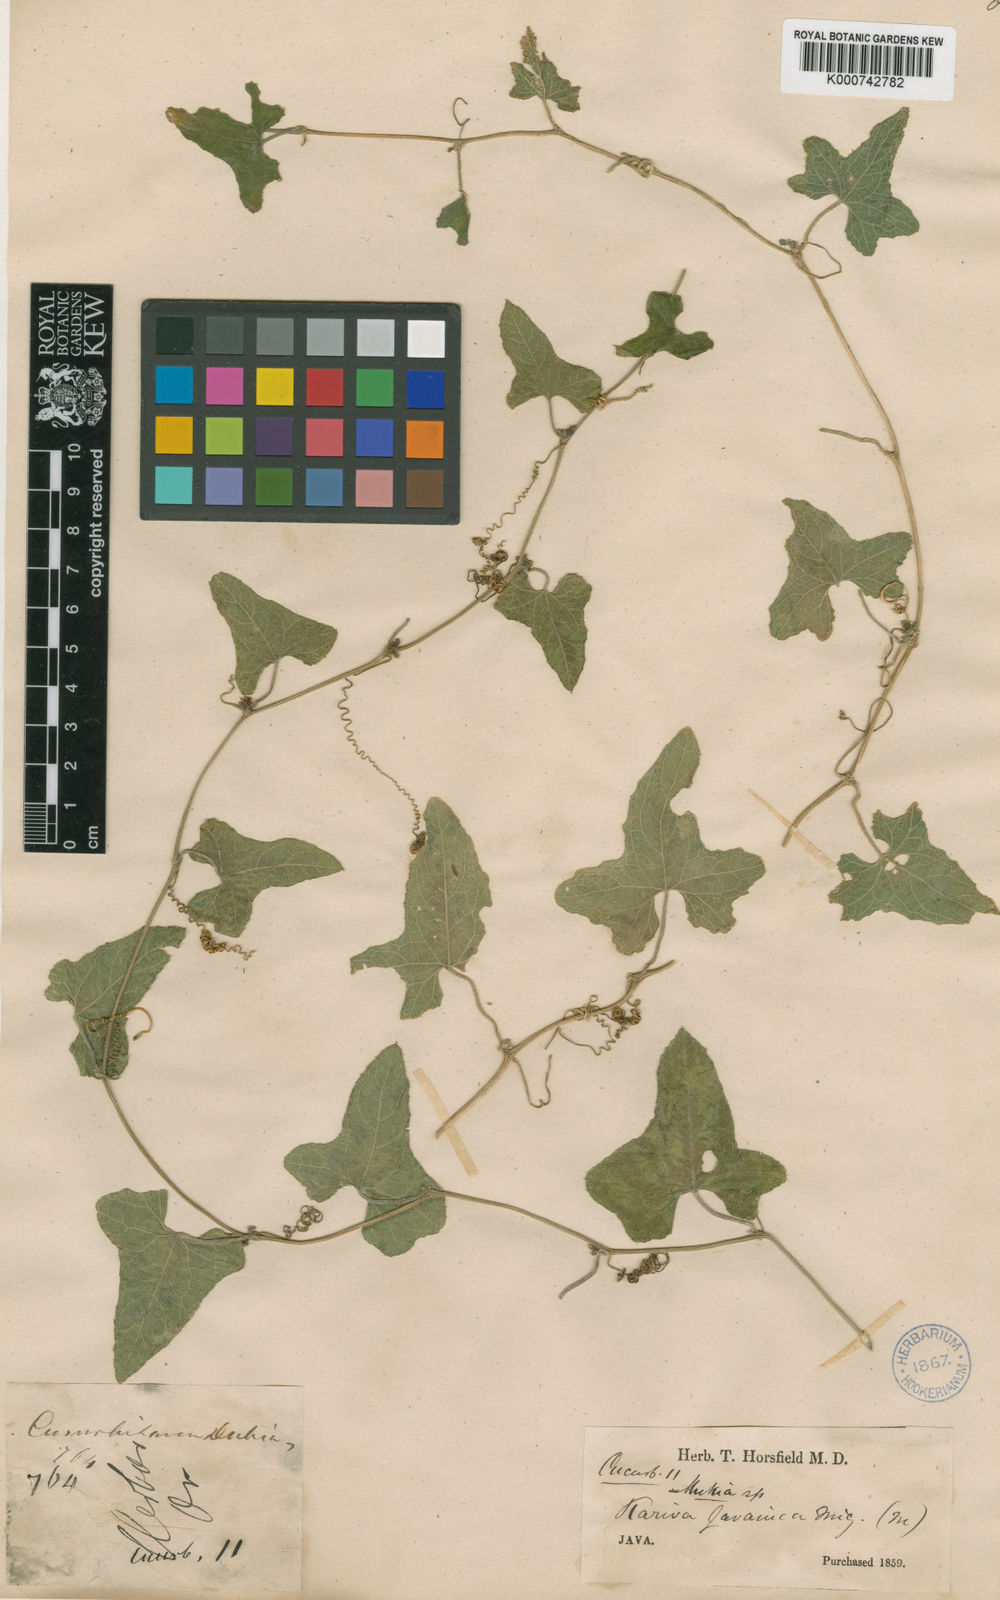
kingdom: Plantae
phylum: Tracheophyta
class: Magnoliopsida
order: Cucurbitales
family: Cucurbitaceae
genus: Cucumis
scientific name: Cucumis javanicus
